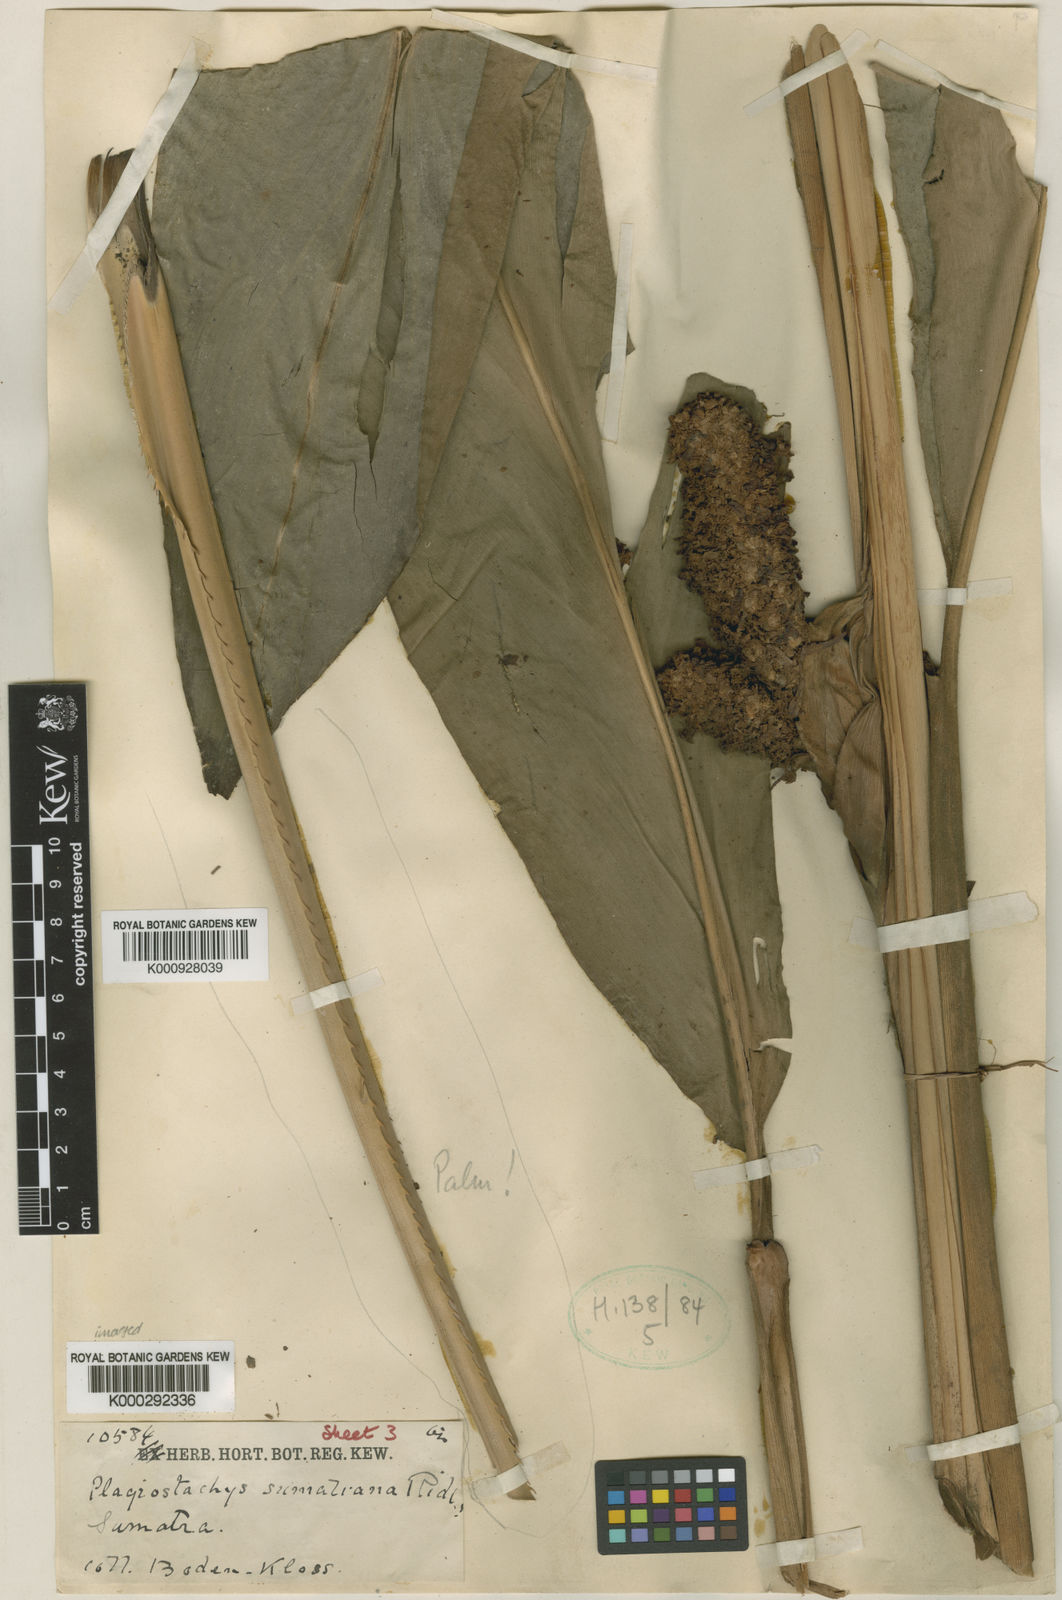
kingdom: Plantae
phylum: Tracheophyta
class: Liliopsida
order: Zingiberales
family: Zingiberaceae
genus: Plagiostachys
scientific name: Plagiostachys
